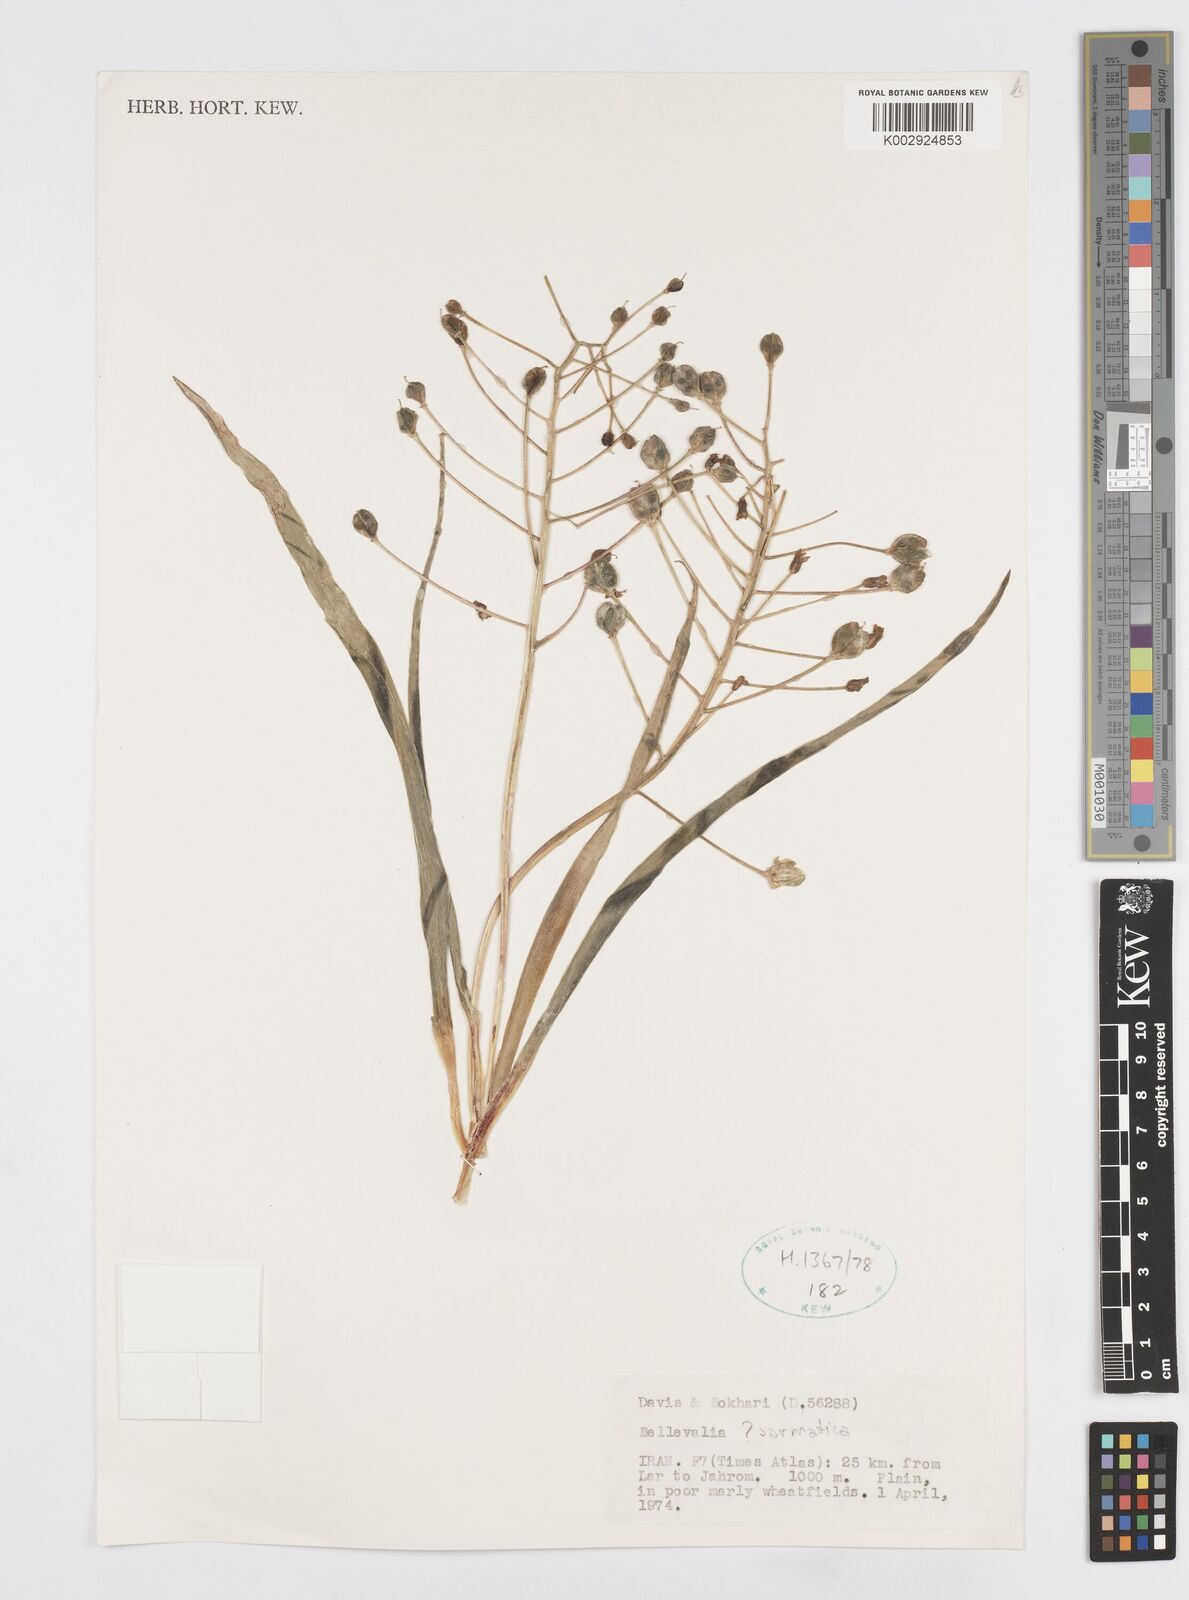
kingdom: Plantae
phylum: Tracheophyta
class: Liliopsida
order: Asparagales
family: Asparagaceae
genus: Bellevalia
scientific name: Bellevalia
